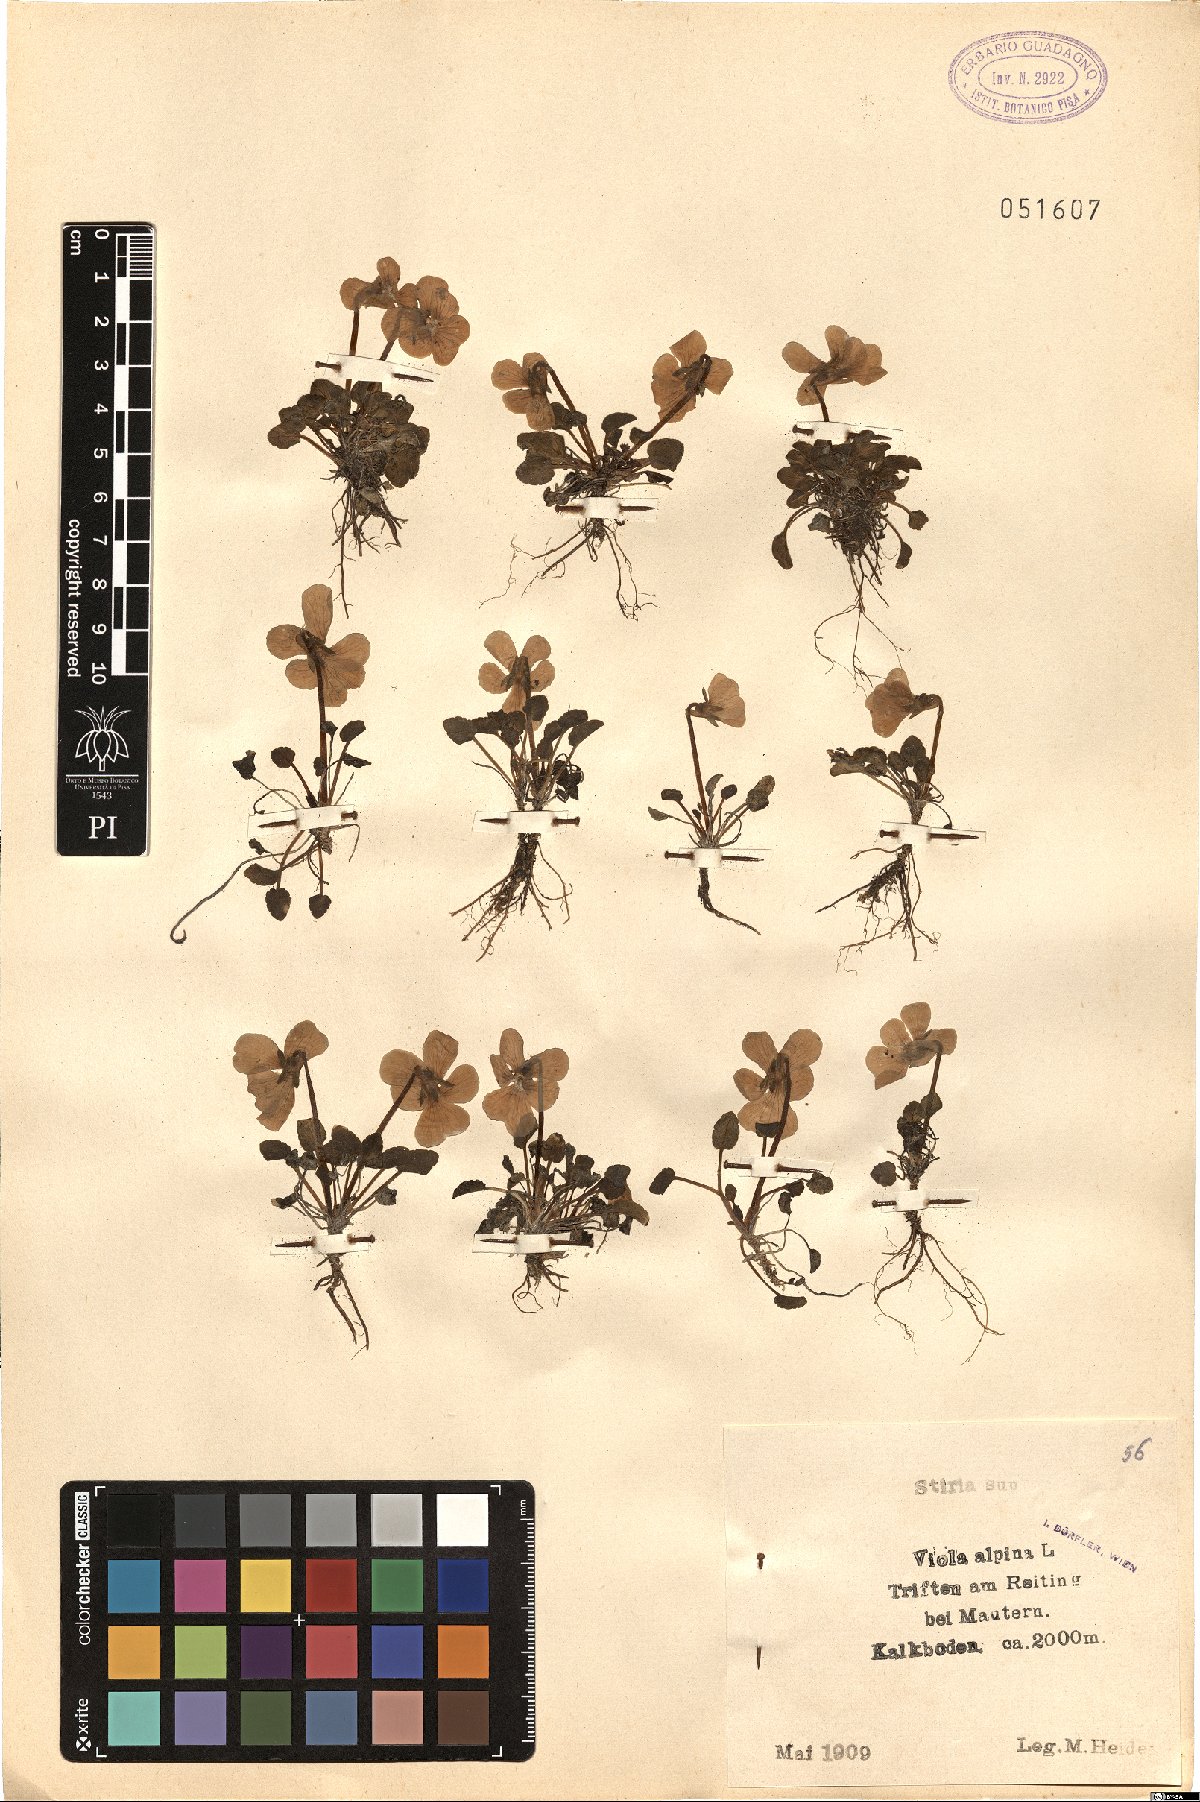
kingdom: Plantae
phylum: Tracheophyta
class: Magnoliopsida
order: Malpighiales
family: Violaceae
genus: Viola
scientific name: Viola alpina
